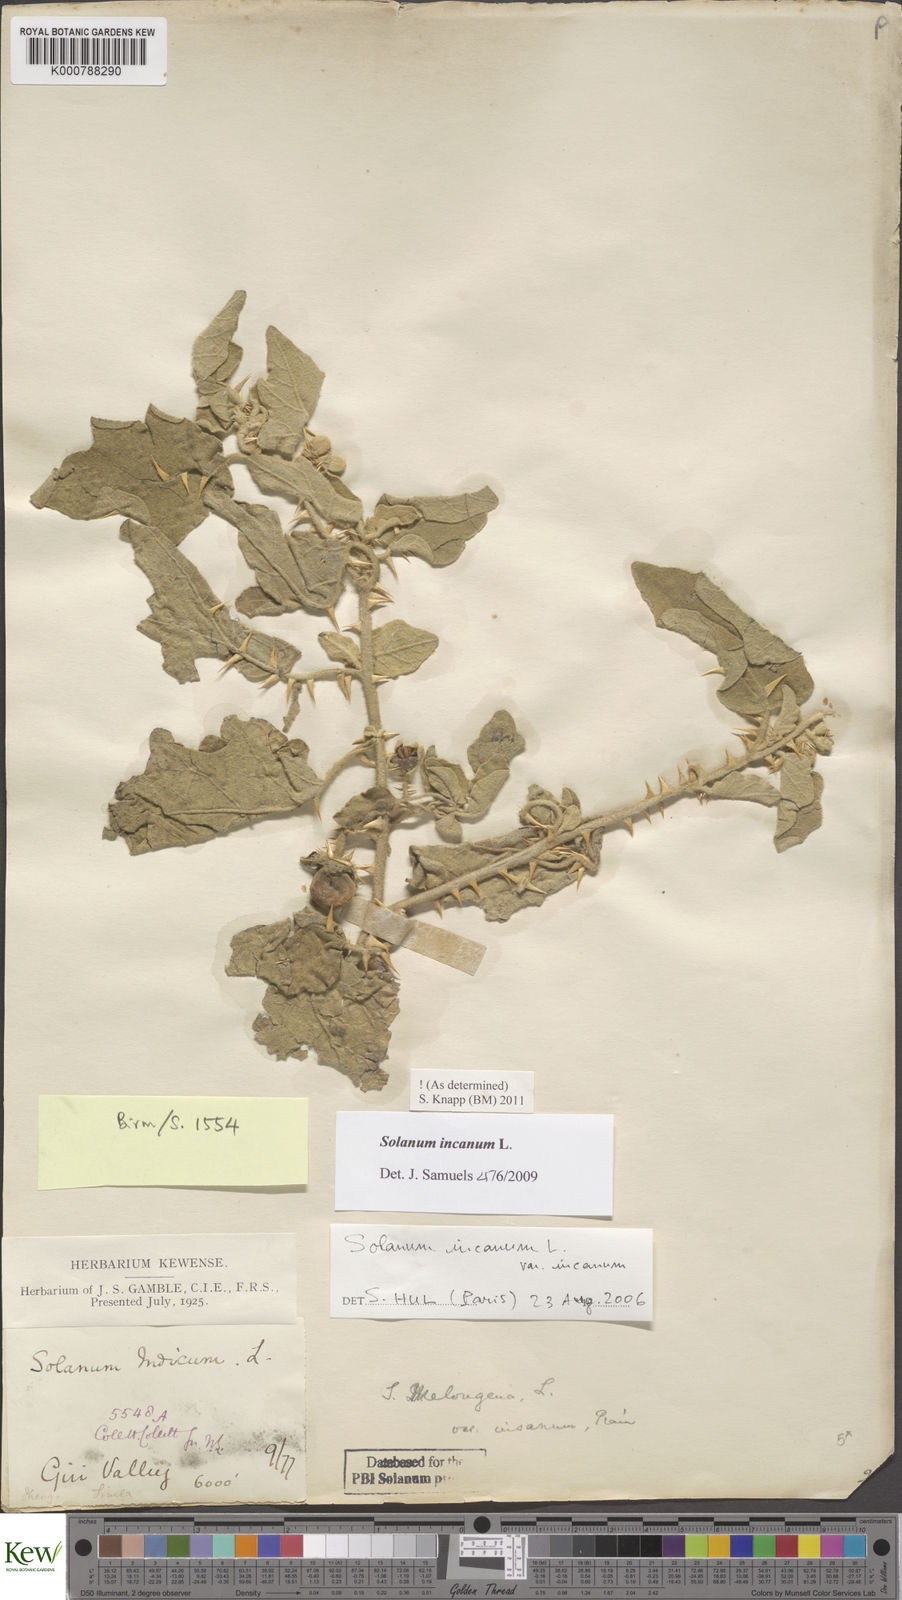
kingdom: Plantae
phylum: Tracheophyta
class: Magnoliopsida
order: Solanales
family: Solanaceae
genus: Solanum
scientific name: Solanum incanum
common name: Bitter apple
